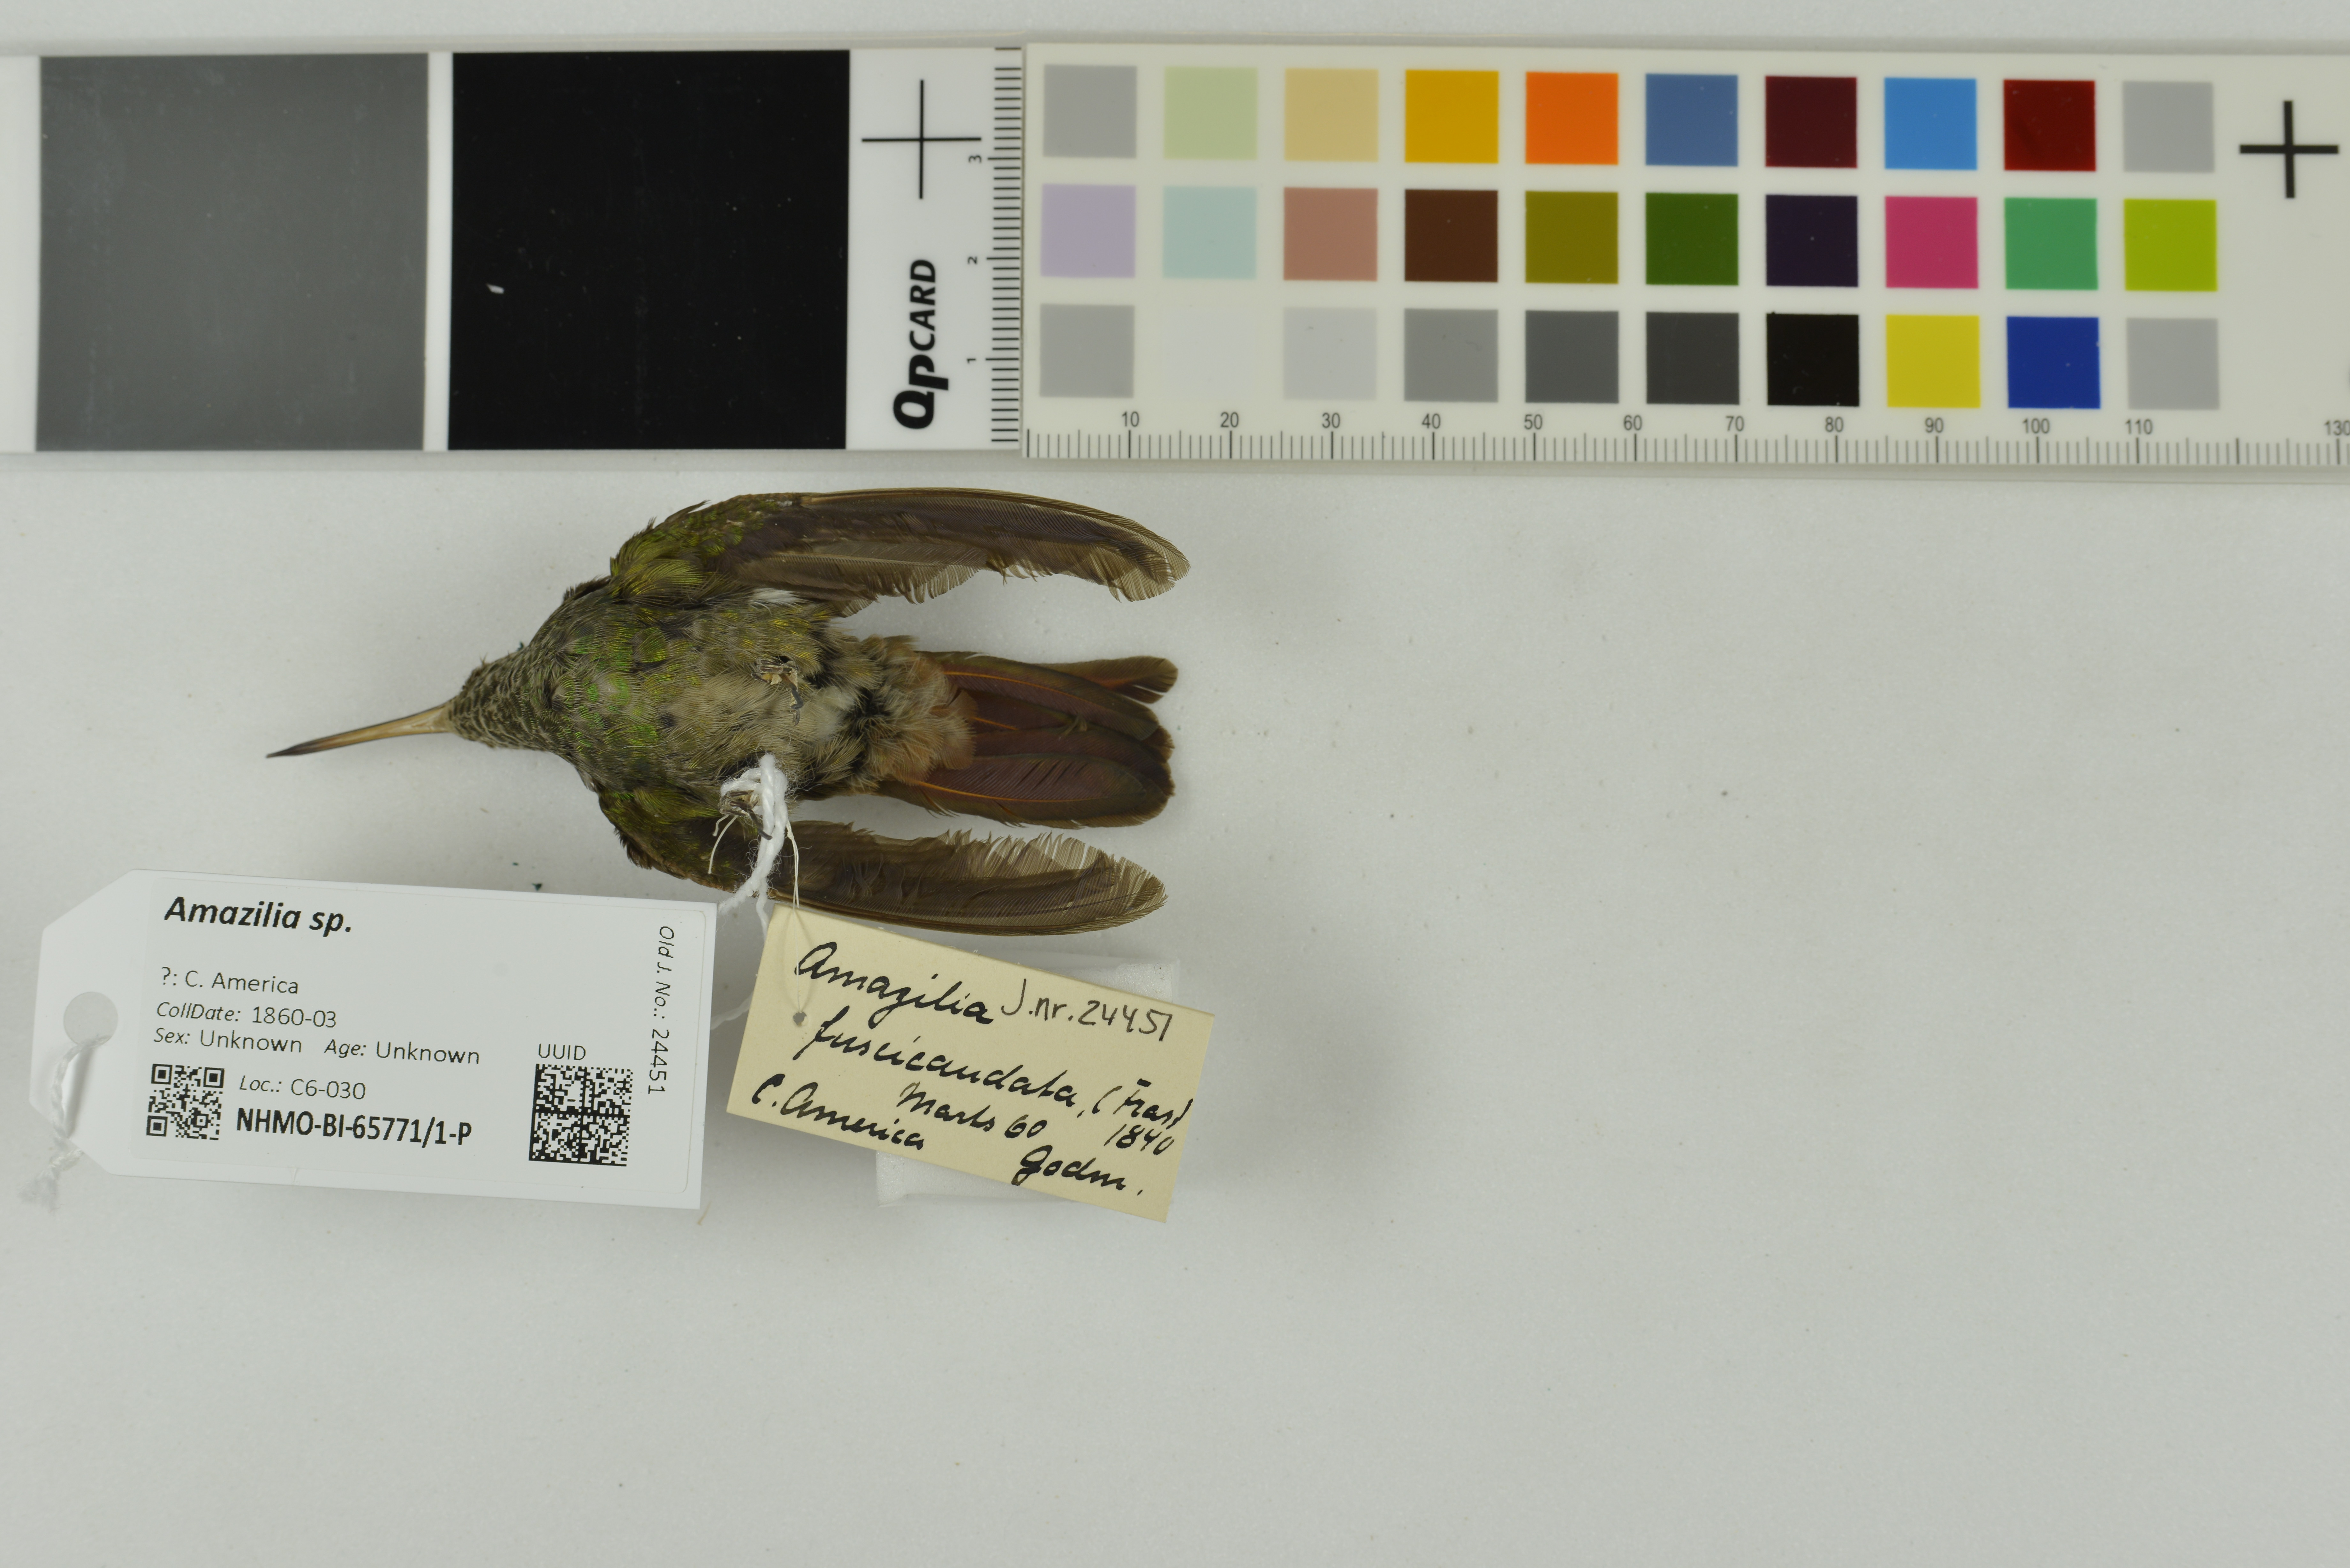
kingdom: Animalia
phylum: Chordata
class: Aves
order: Apodiformes
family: Trochilidae
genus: Amazilia
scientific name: Amazilia
